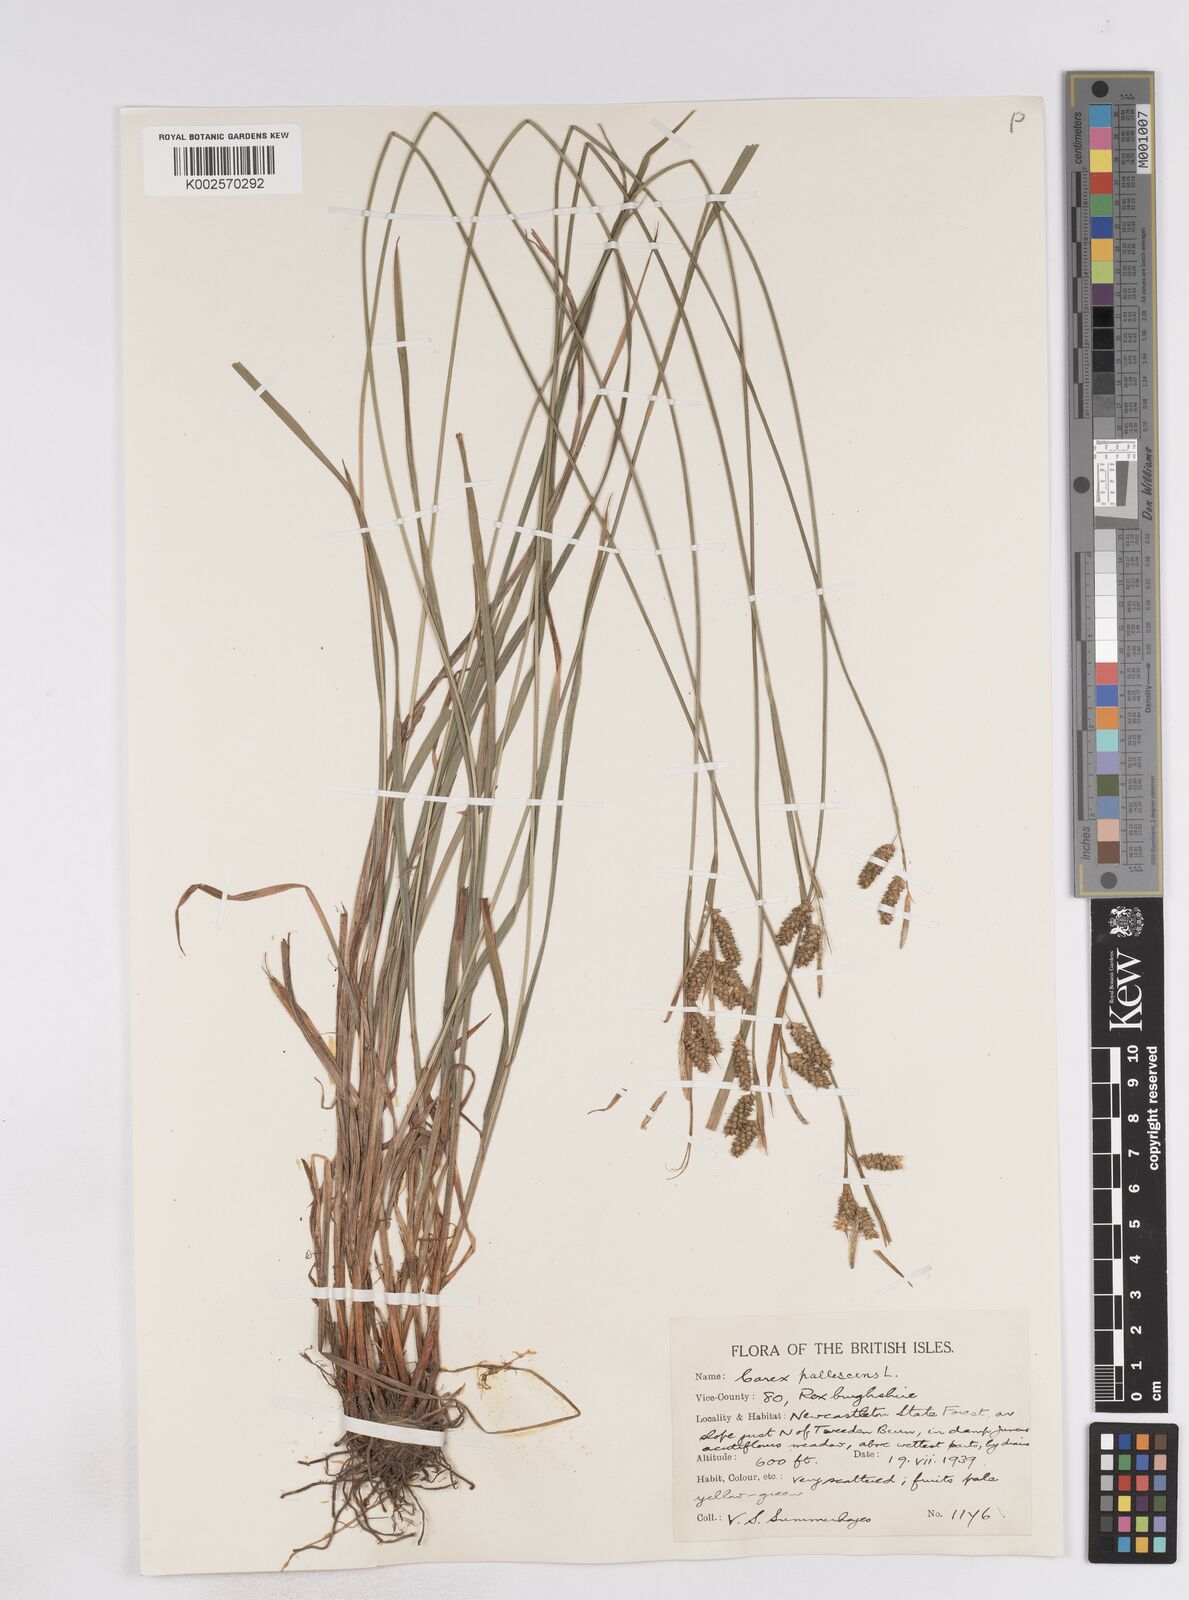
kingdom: Plantae
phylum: Tracheophyta
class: Liliopsida
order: Poales
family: Cyperaceae
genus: Carex
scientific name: Carex pallescens
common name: Pale sedge
